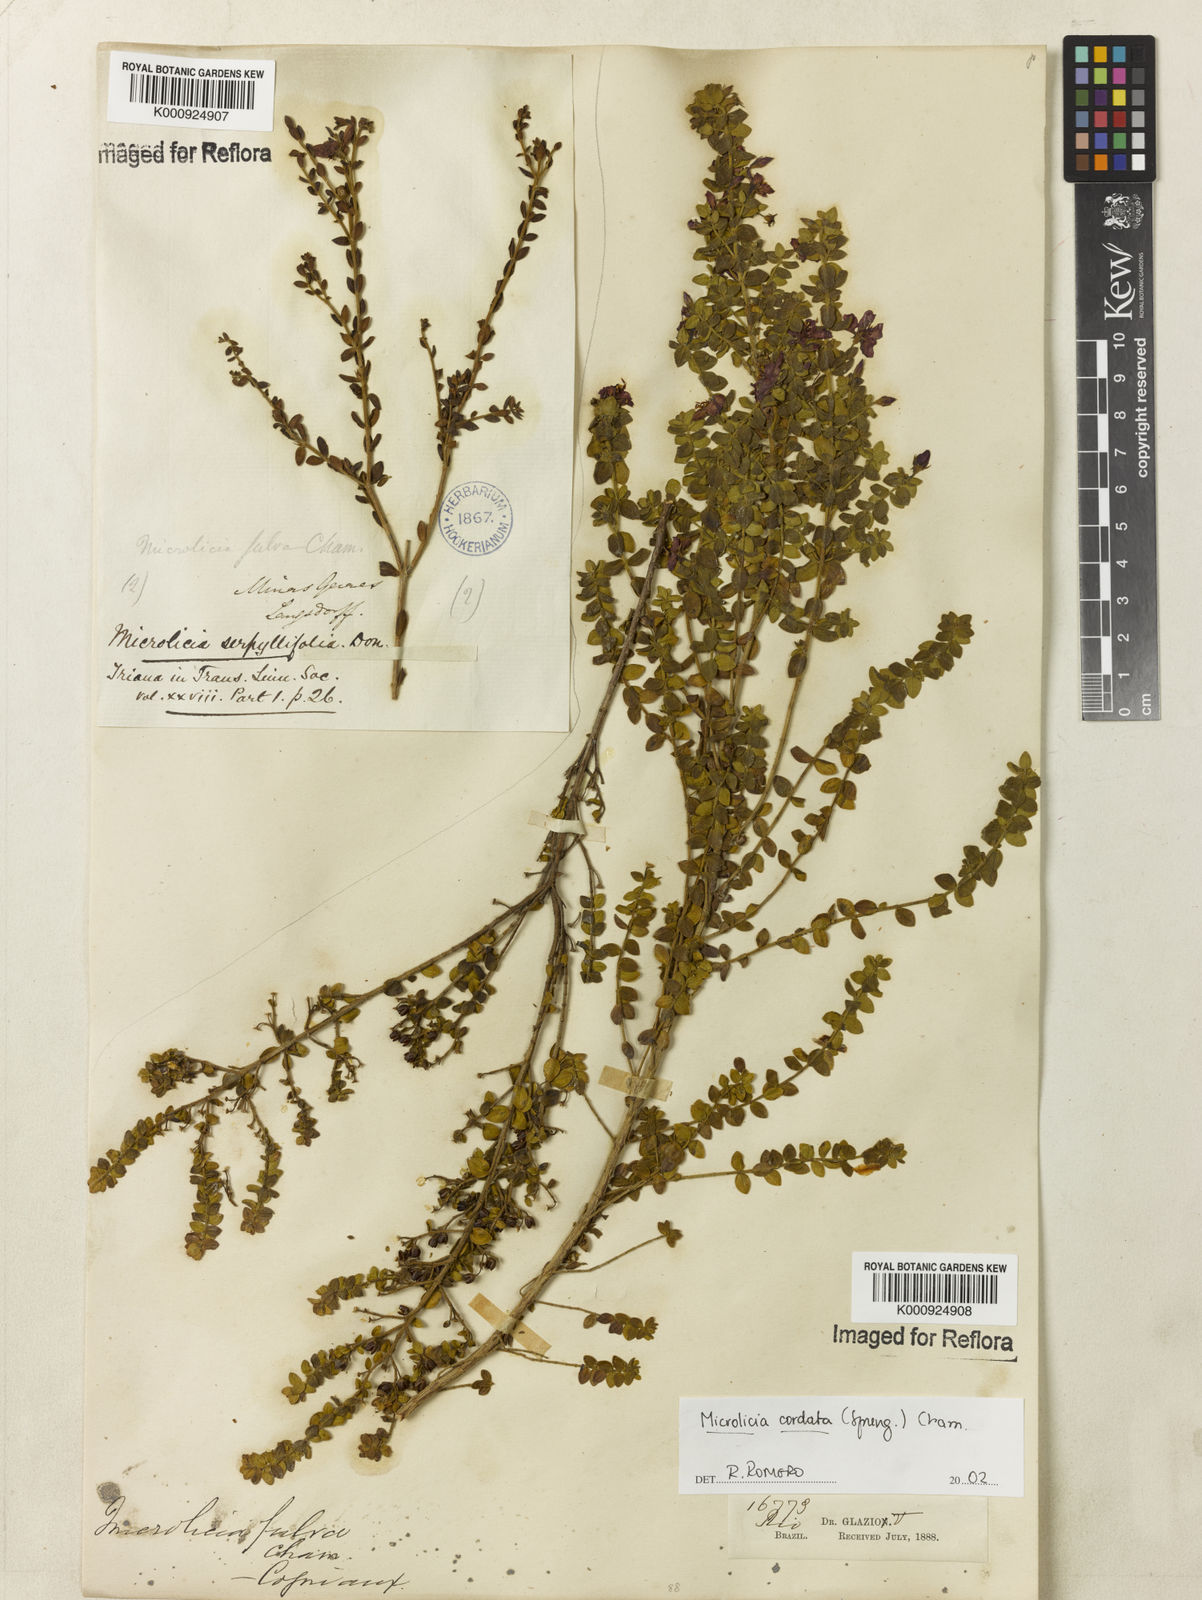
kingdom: Plantae
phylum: Tracheophyta
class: Magnoliopsida
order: Myrtales
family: Melastomataceae
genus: Microlicia
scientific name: Microlicia cordata
